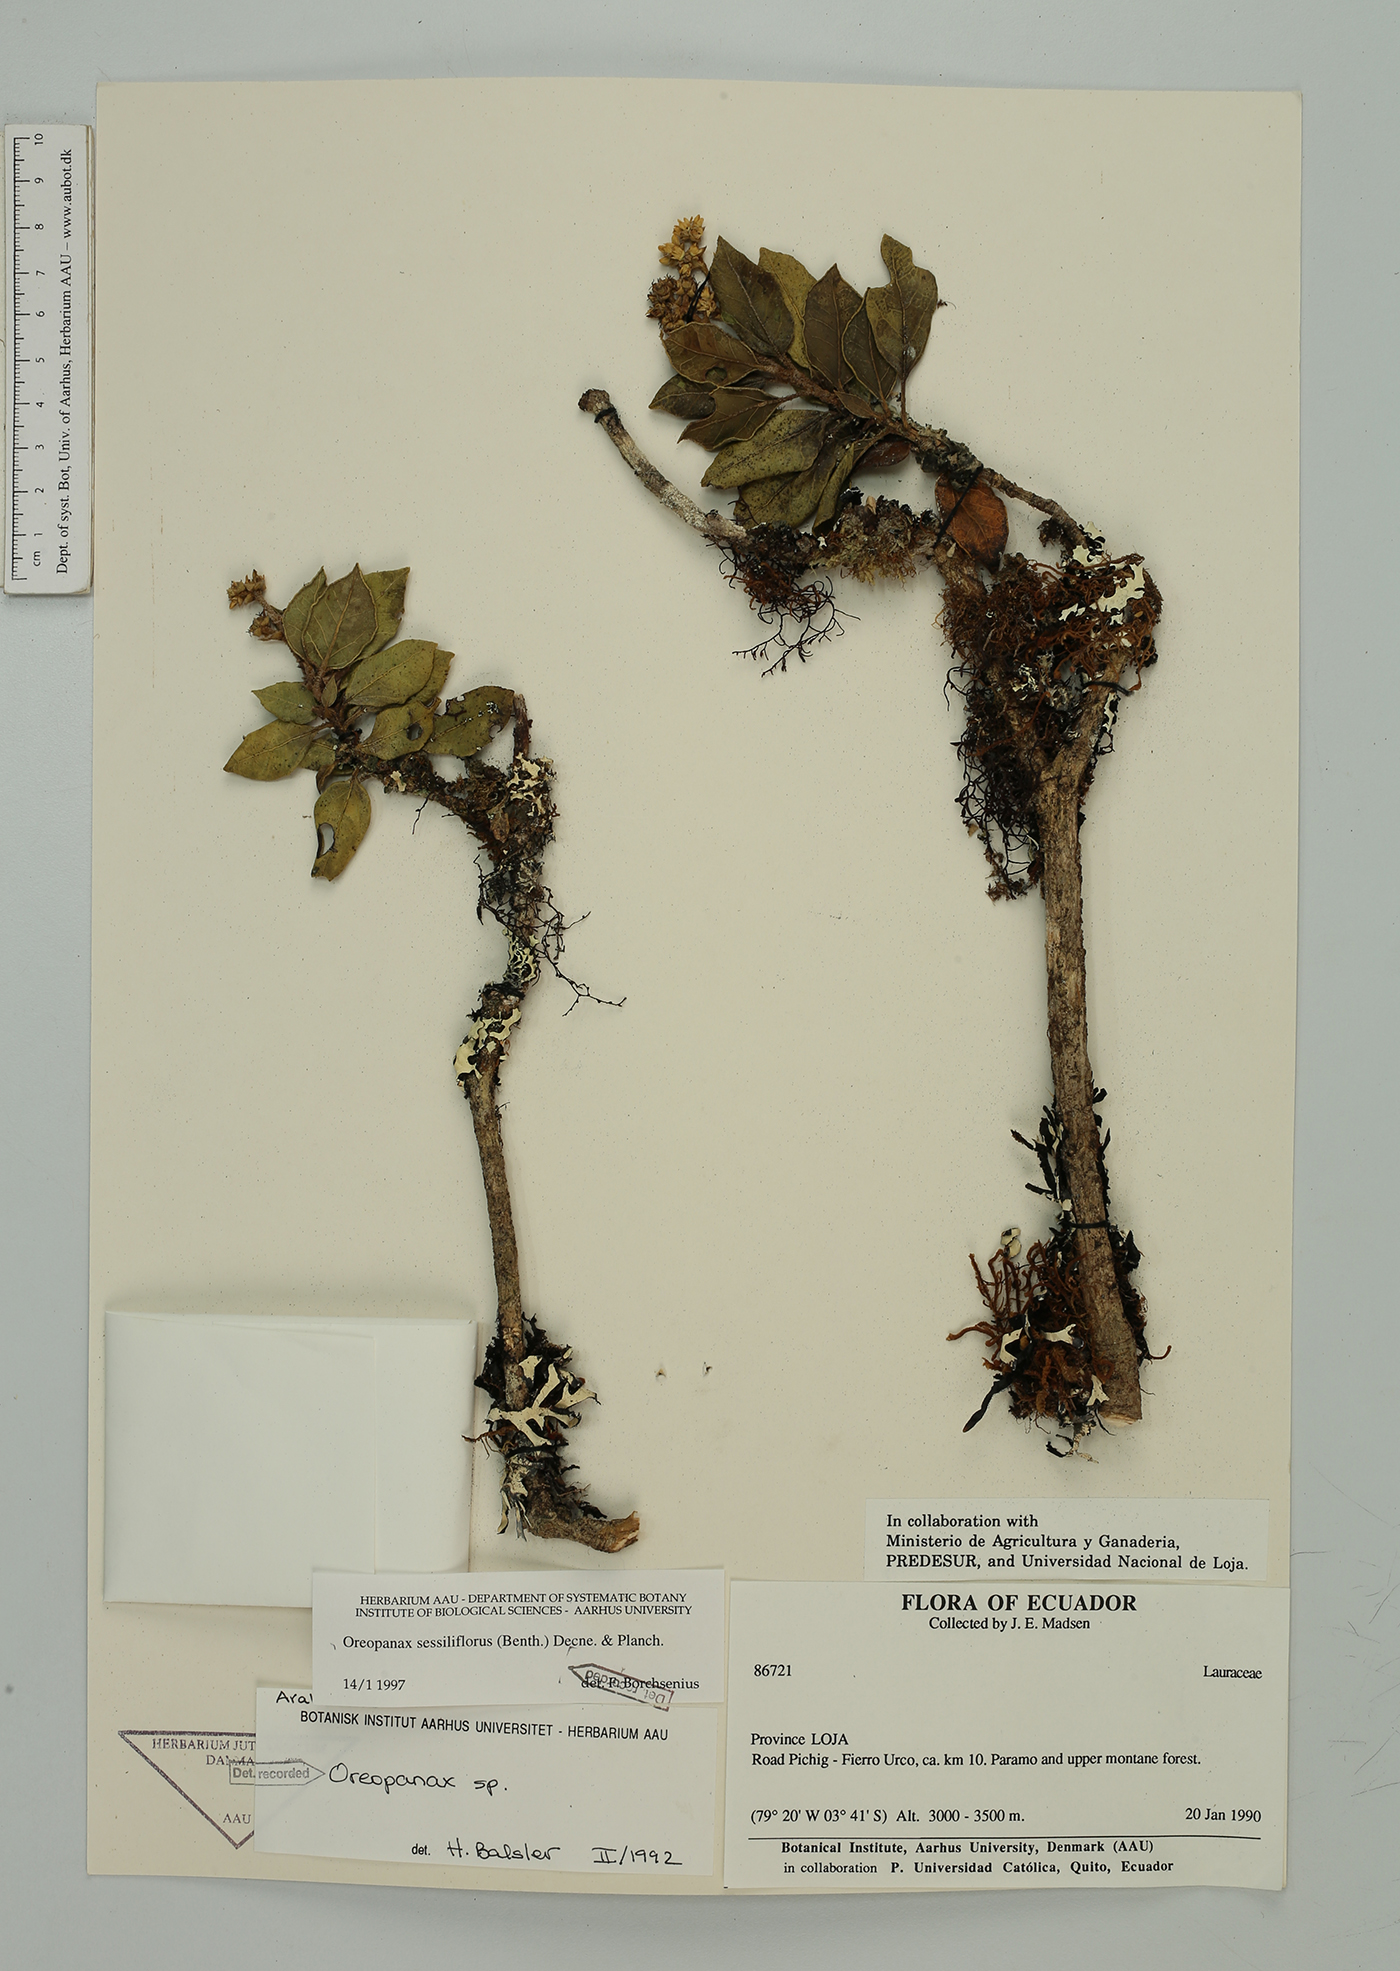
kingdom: Plantae
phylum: Tracheophyta
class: Magnoliopsida
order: Apiales
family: Araliaceae
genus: Oreopanax
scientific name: Oreopanax sessiliflorus
